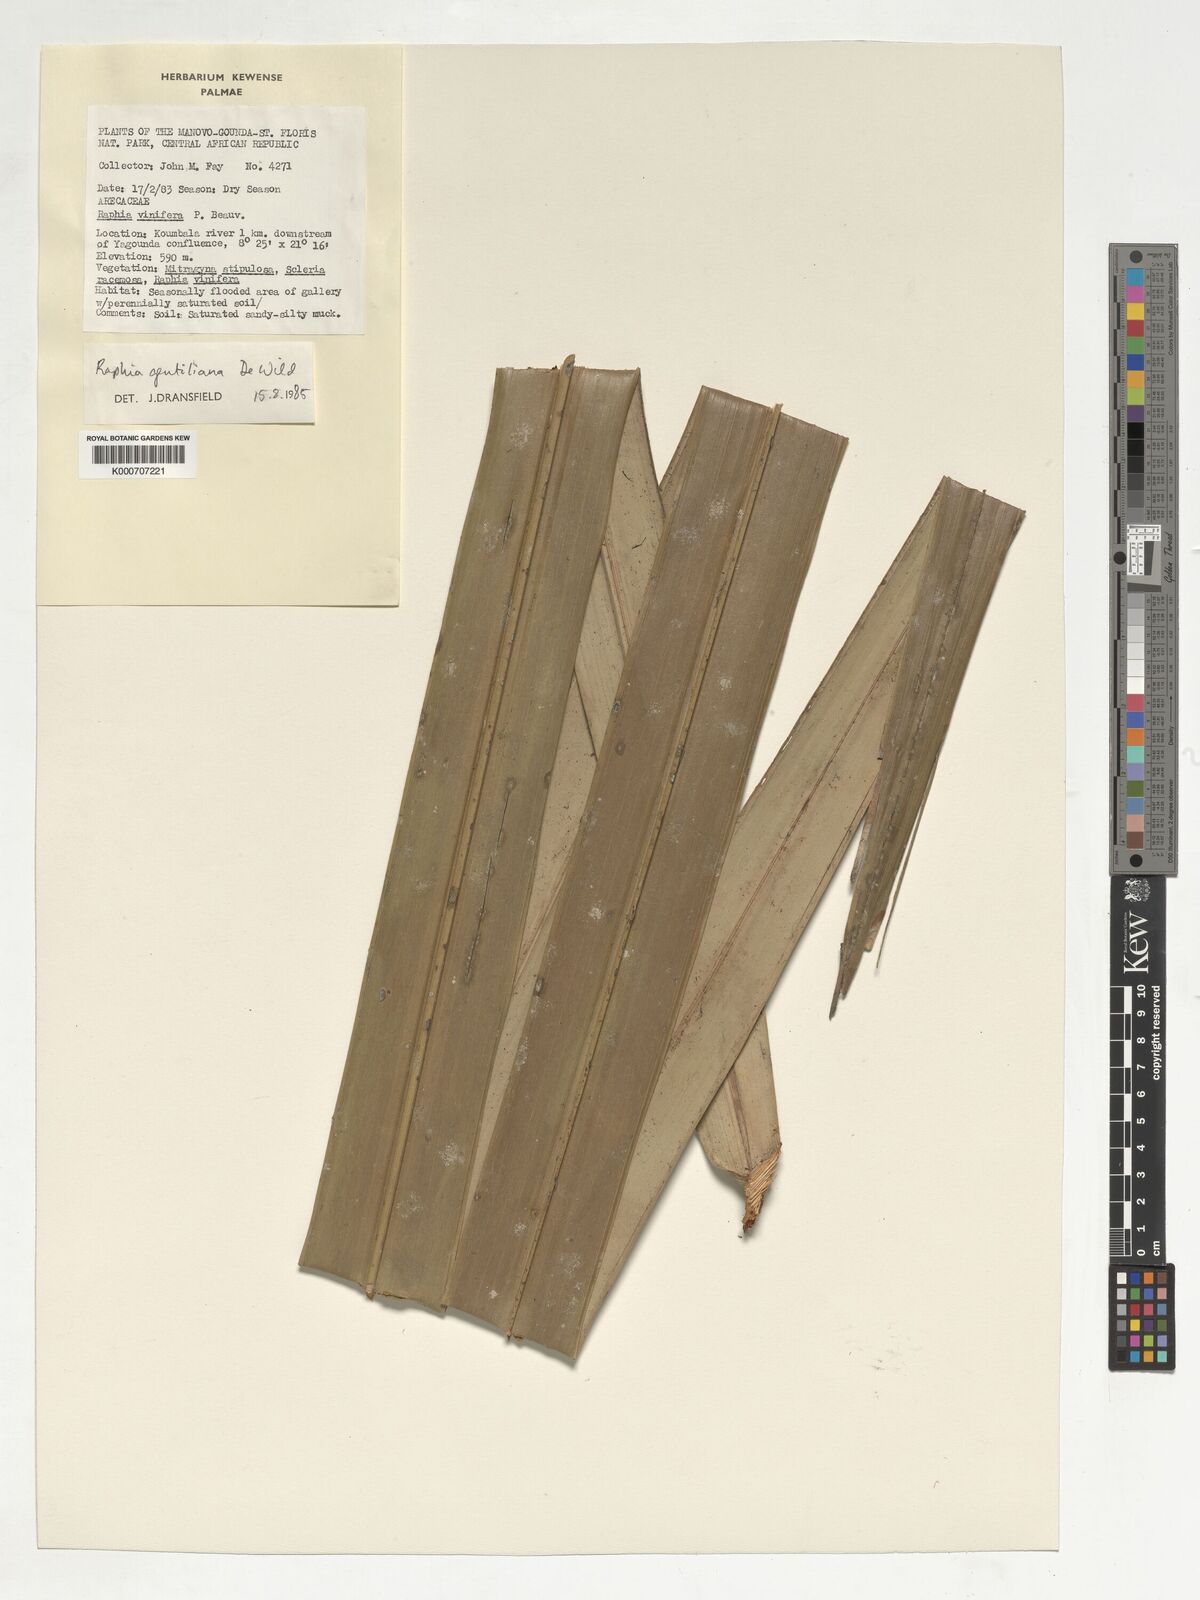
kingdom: Plantae
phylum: Tracheophyta
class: Liliopsida
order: Arecales
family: Arecaceae
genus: Raphia
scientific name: Raphia gentiliana
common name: Raphia palm
